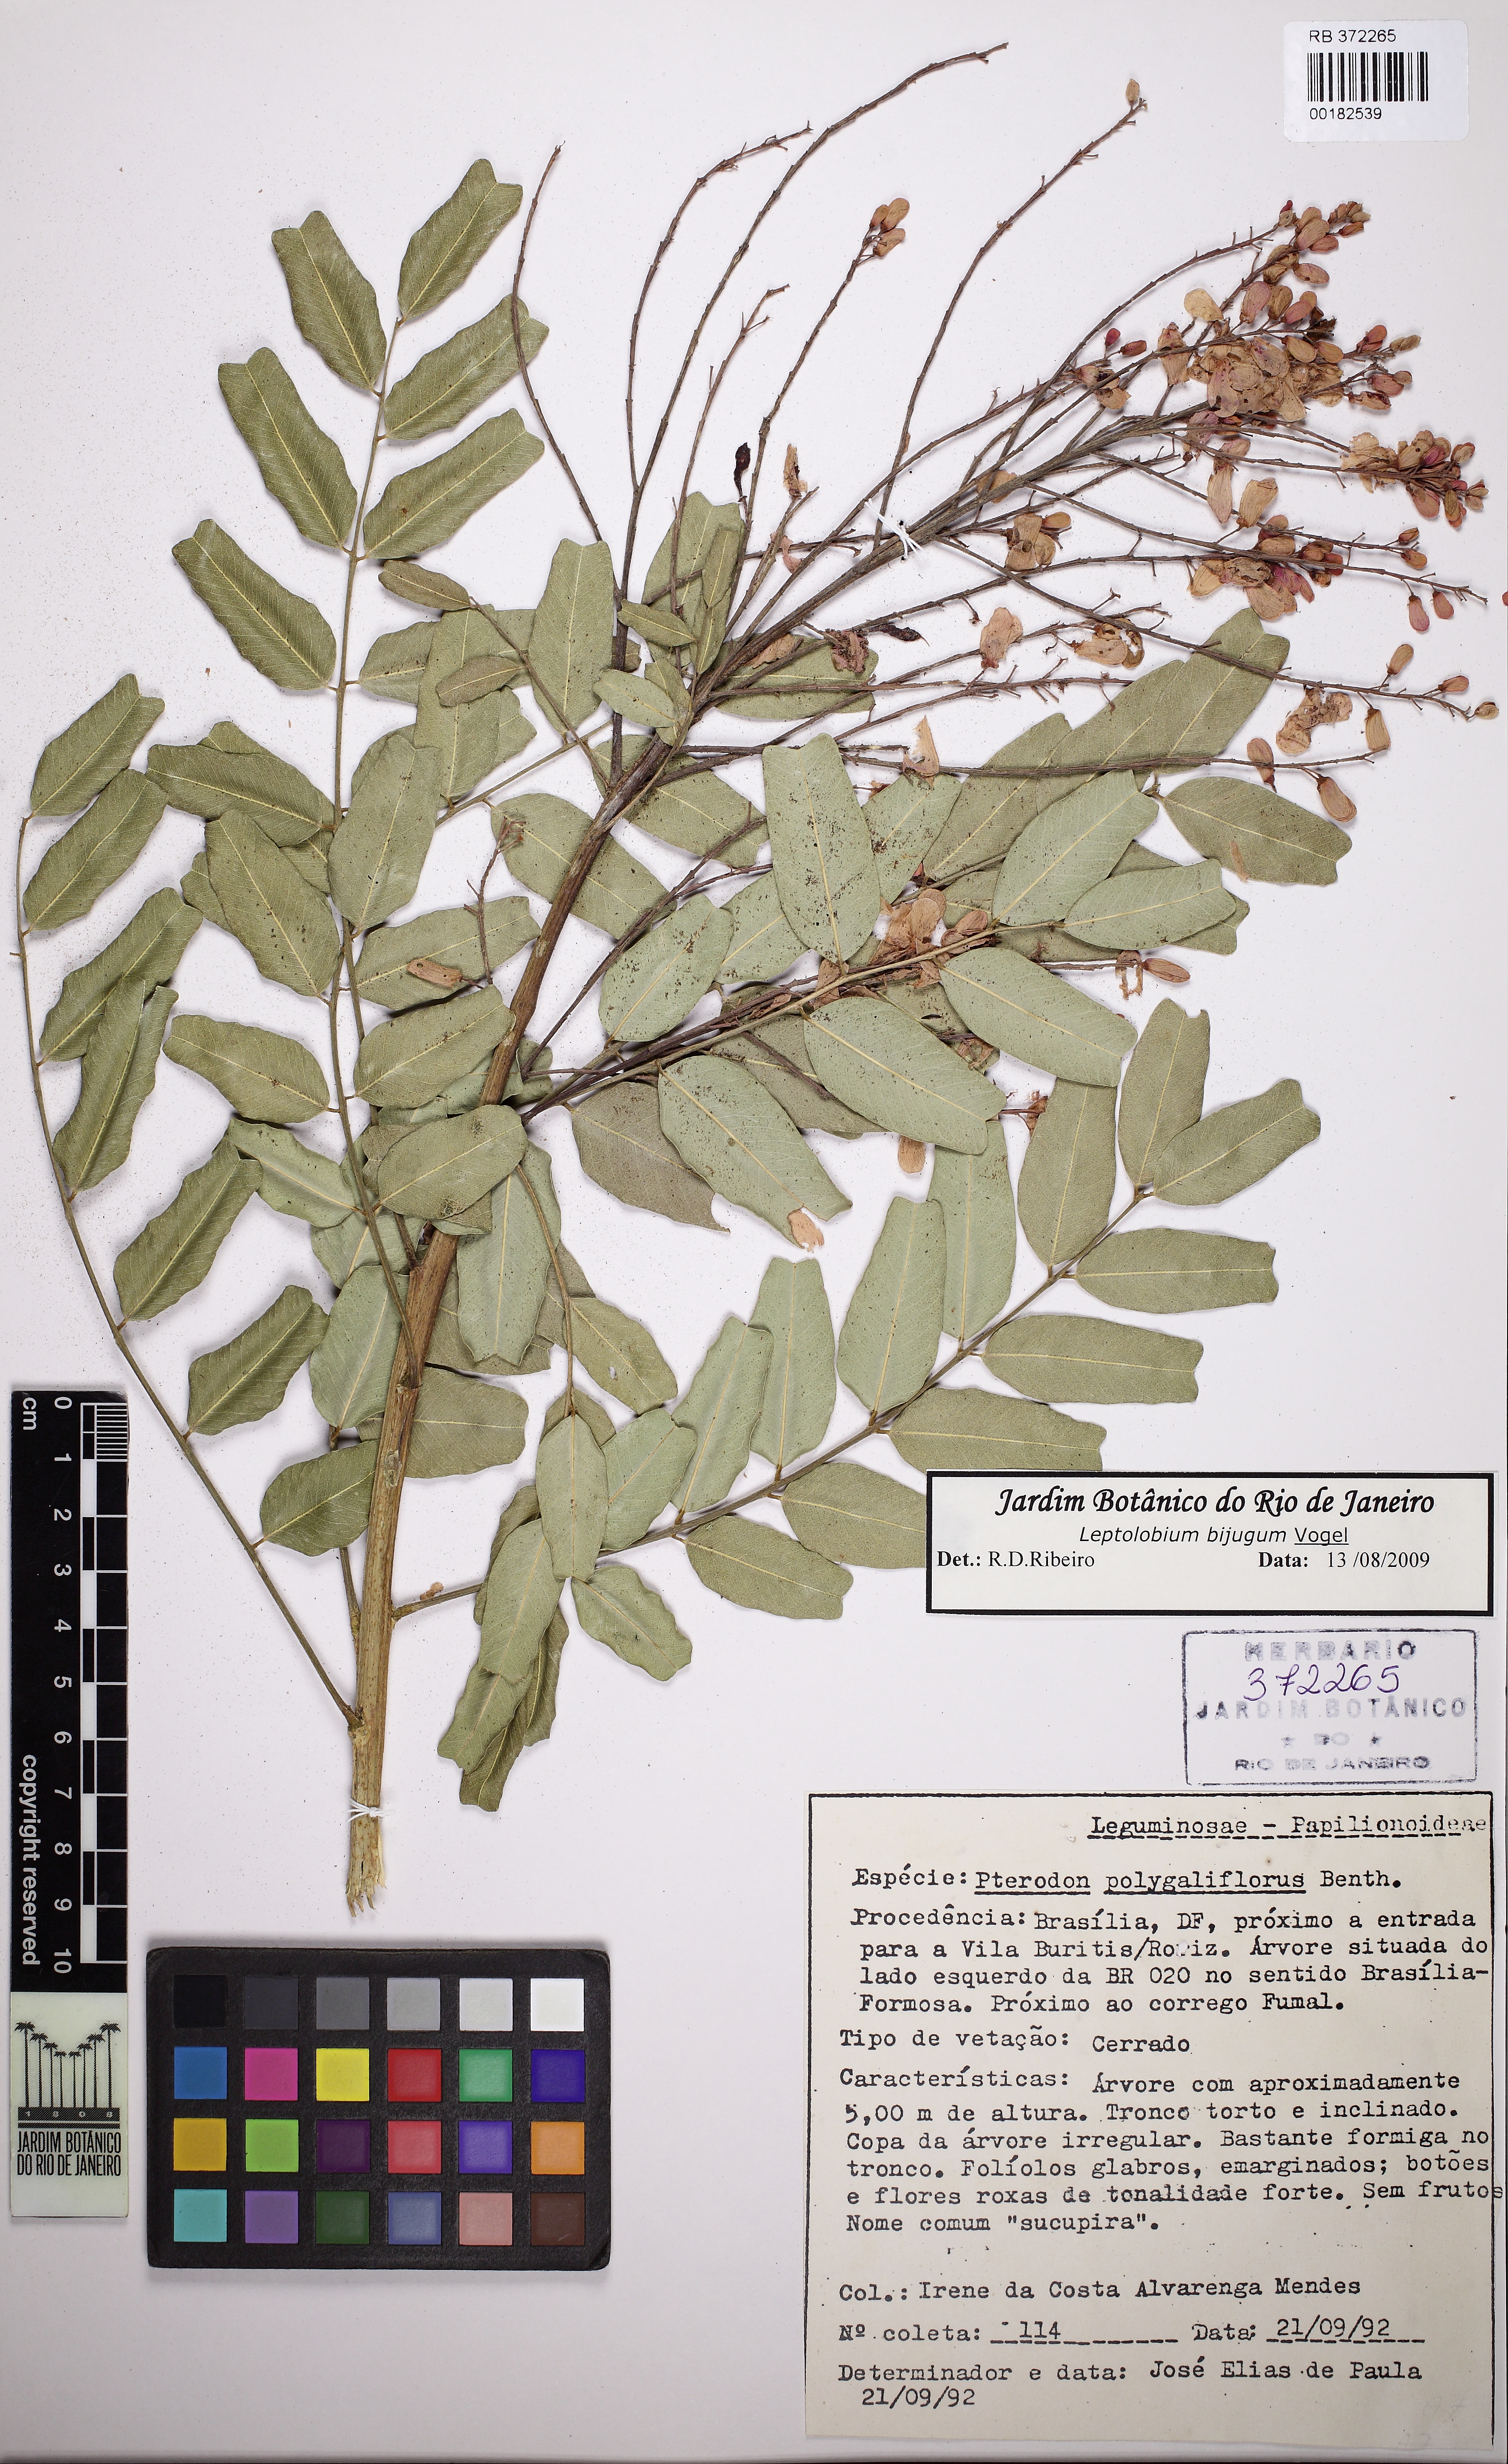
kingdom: Plantae
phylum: Tracheophyta
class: Magnoliopsida
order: Fabales
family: Fabaceae
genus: Pterodon
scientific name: Pterodon emarginatus
